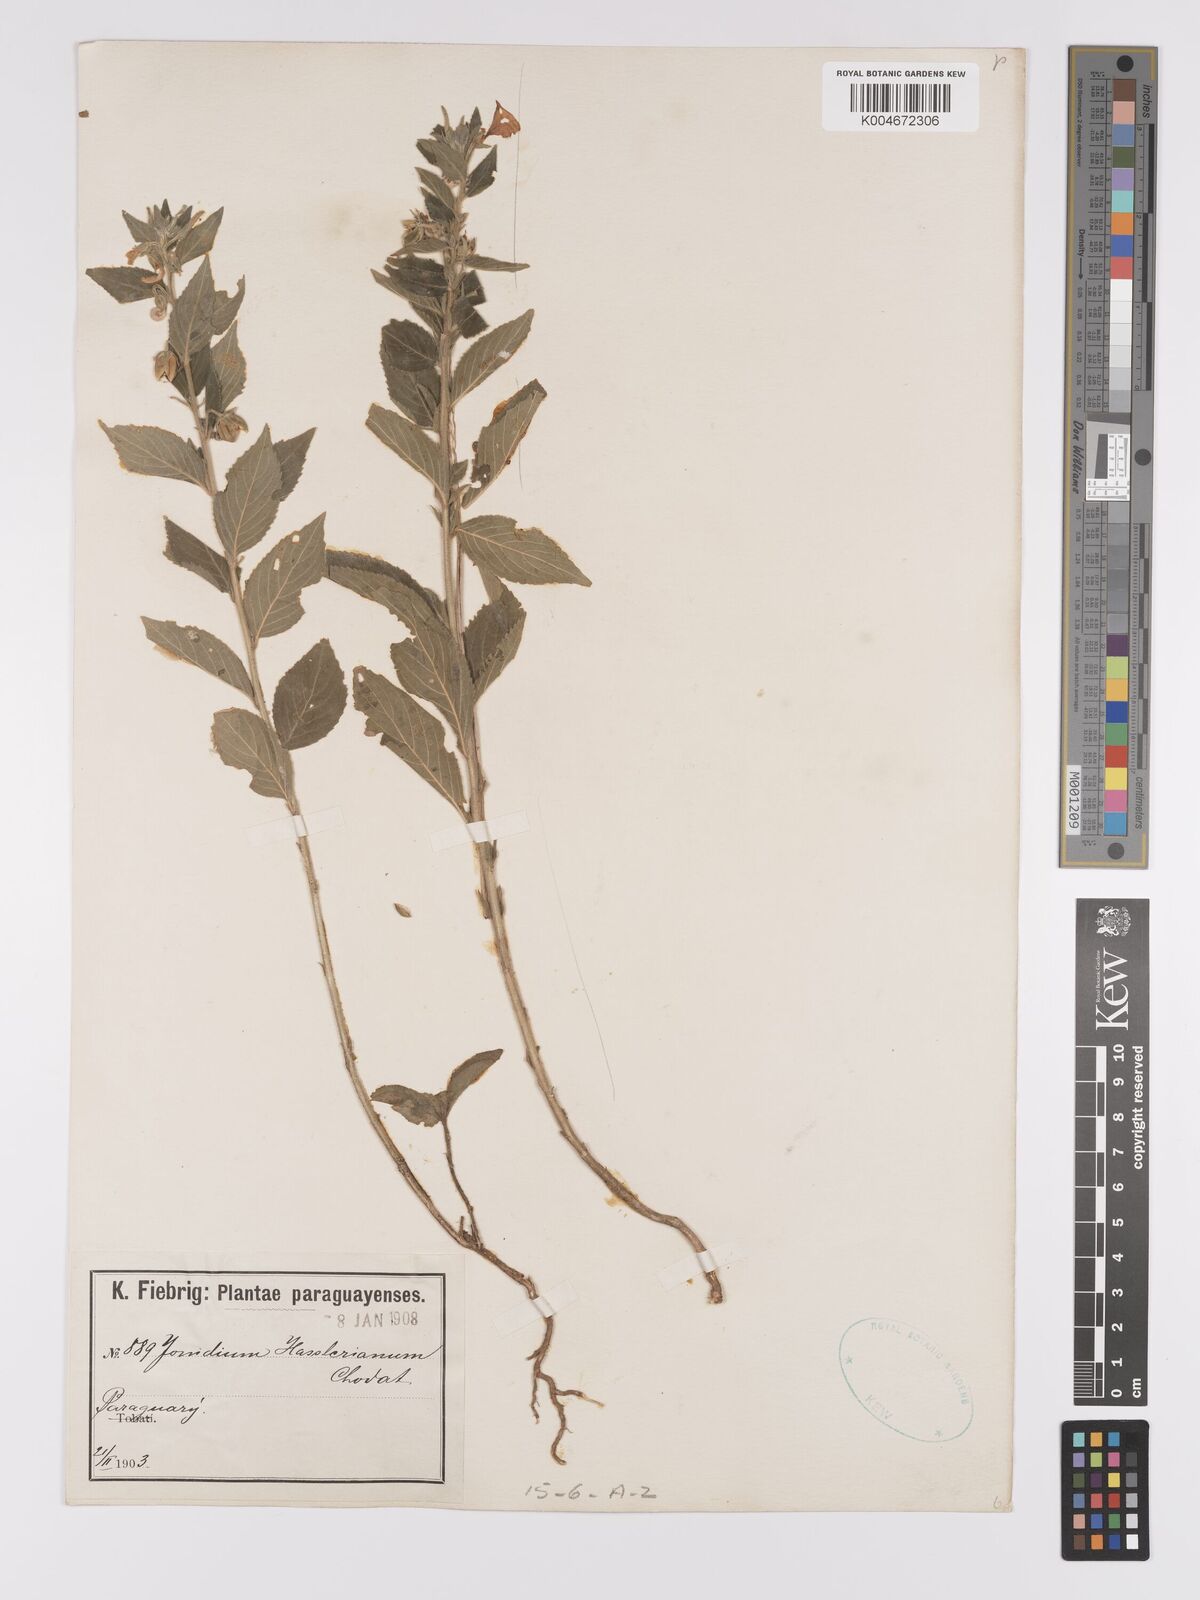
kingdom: Plantae
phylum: Tracheophyta
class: Magnoliopsida
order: Malpighiales
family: Violaceae
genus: Pombalia
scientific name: Pombalia hassleriana
